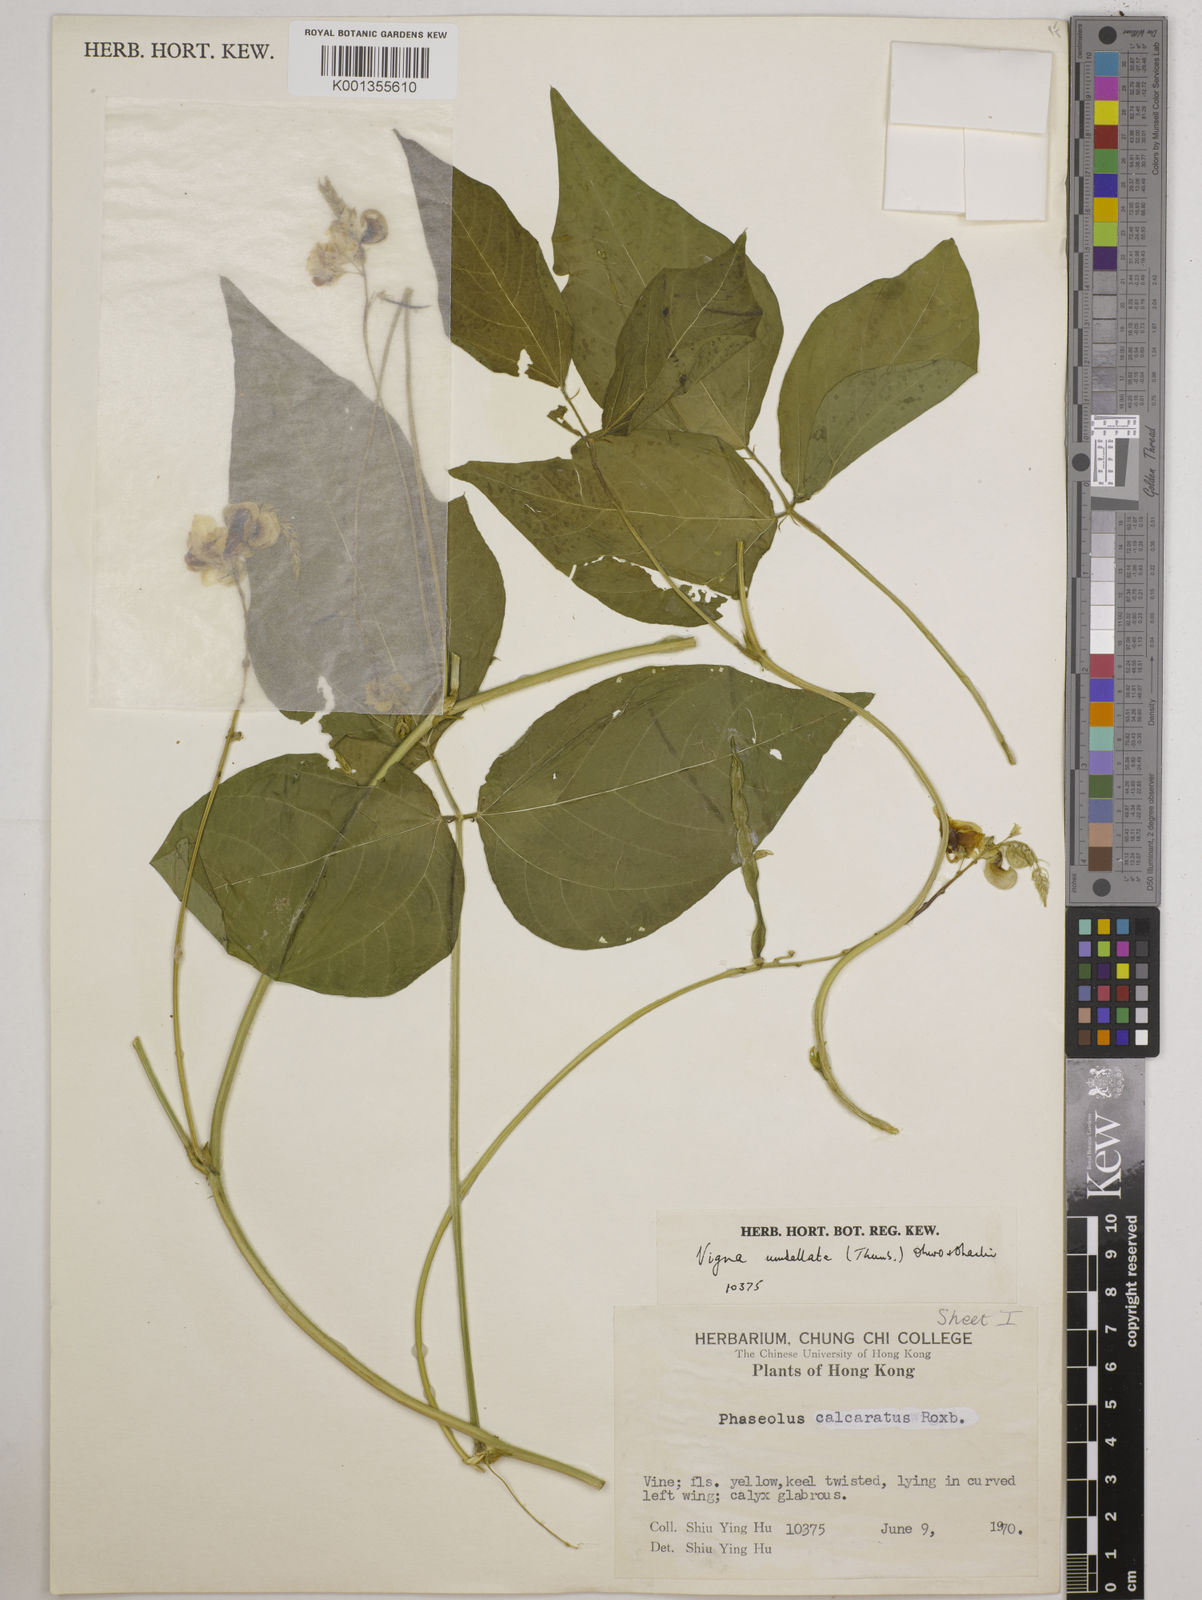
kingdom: Plantae
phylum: Tracheophyta
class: Magnoliopsida
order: Fabales
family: Fabaceae
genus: Vigna
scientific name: Vigna umbellata
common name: Oriental-bean
